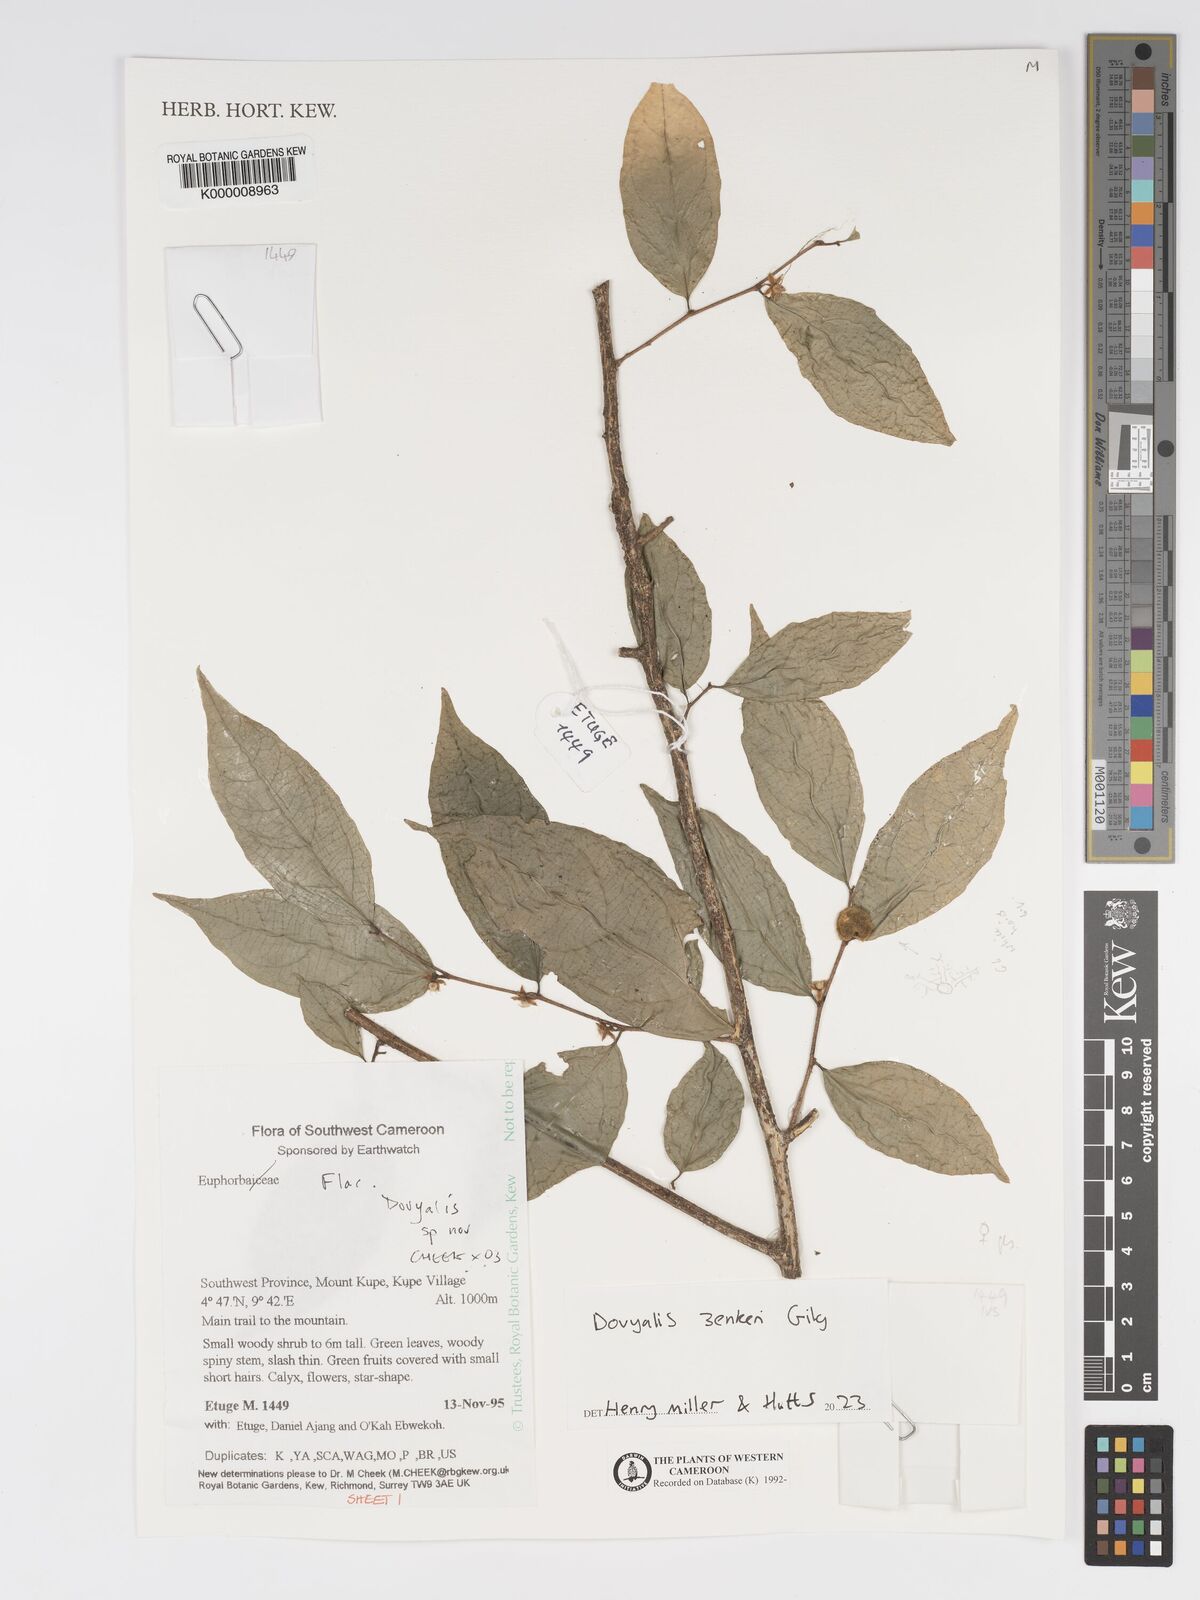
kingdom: Plantae
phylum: Tracheophyta
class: Magnoliopsida
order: Malpighiales
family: Salicaceae
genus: Dovyalis
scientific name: Dovyalis
